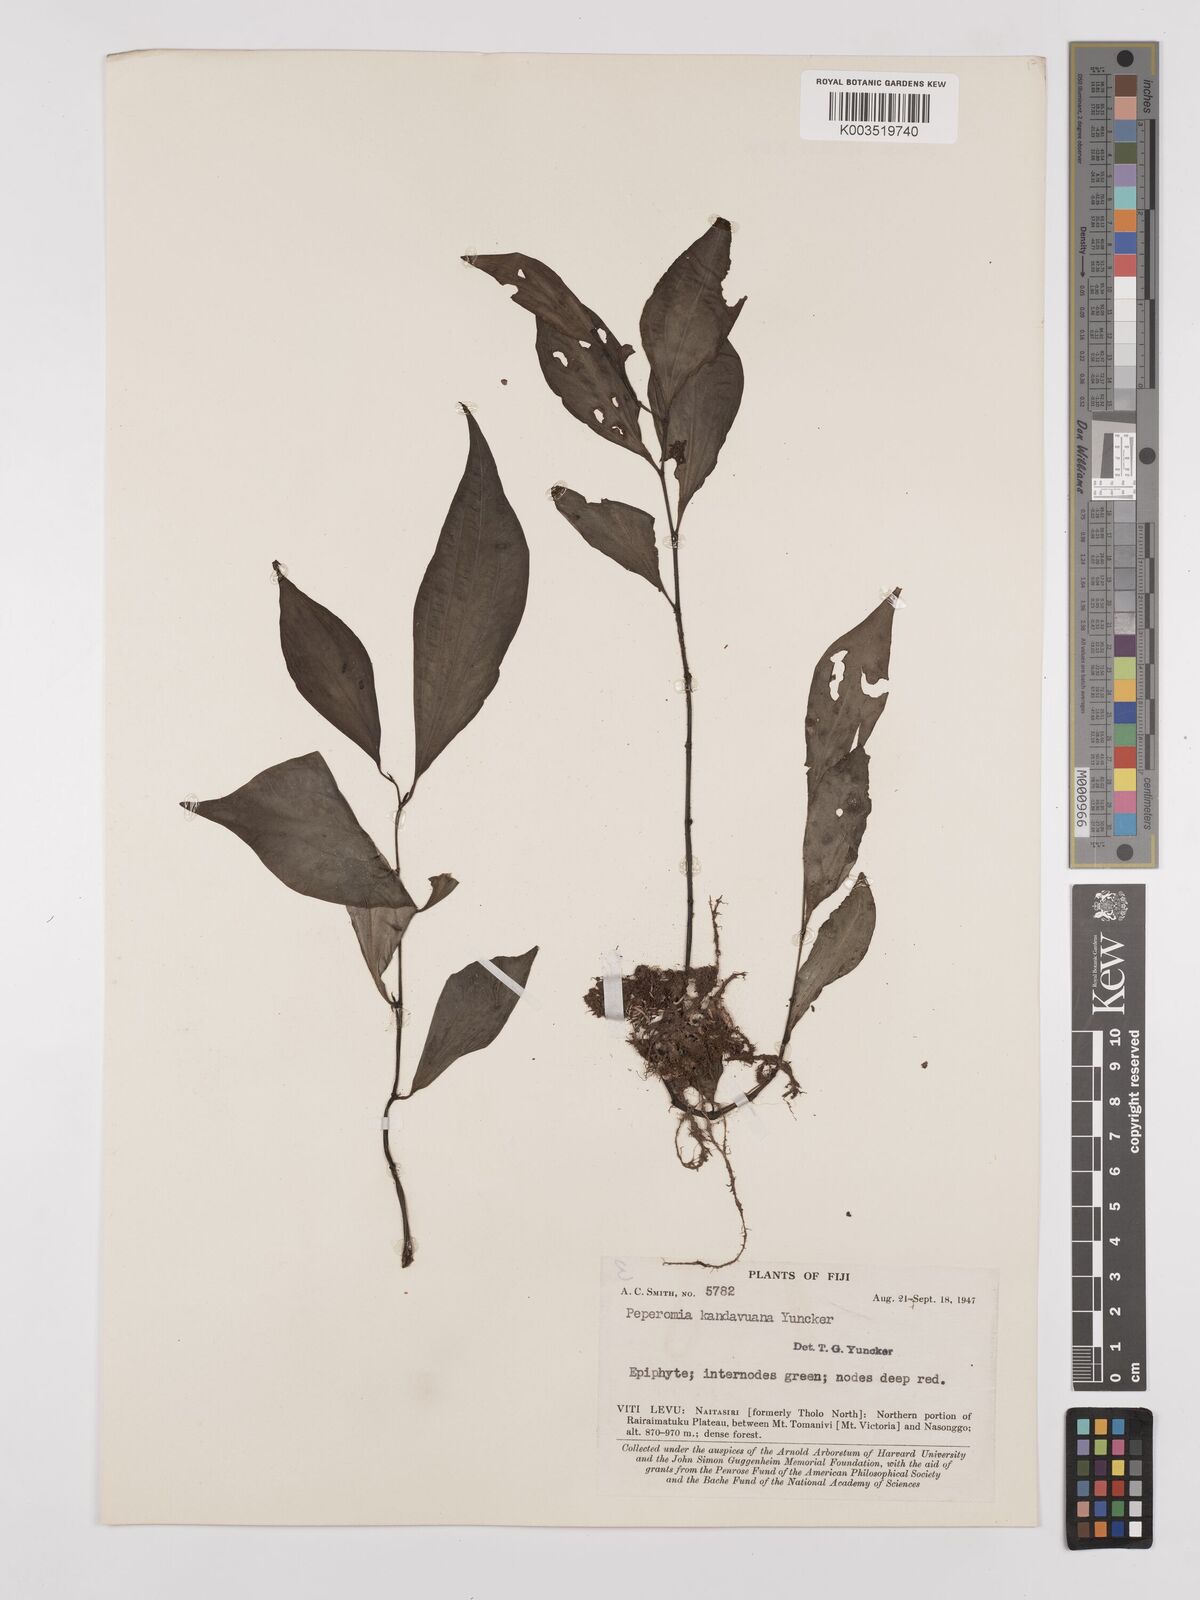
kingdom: Plantae
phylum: Tracheophyta
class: Magnoliopsida
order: Piperales
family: Piperaceae
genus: Peperomia
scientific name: Peperomia lasiostigma
